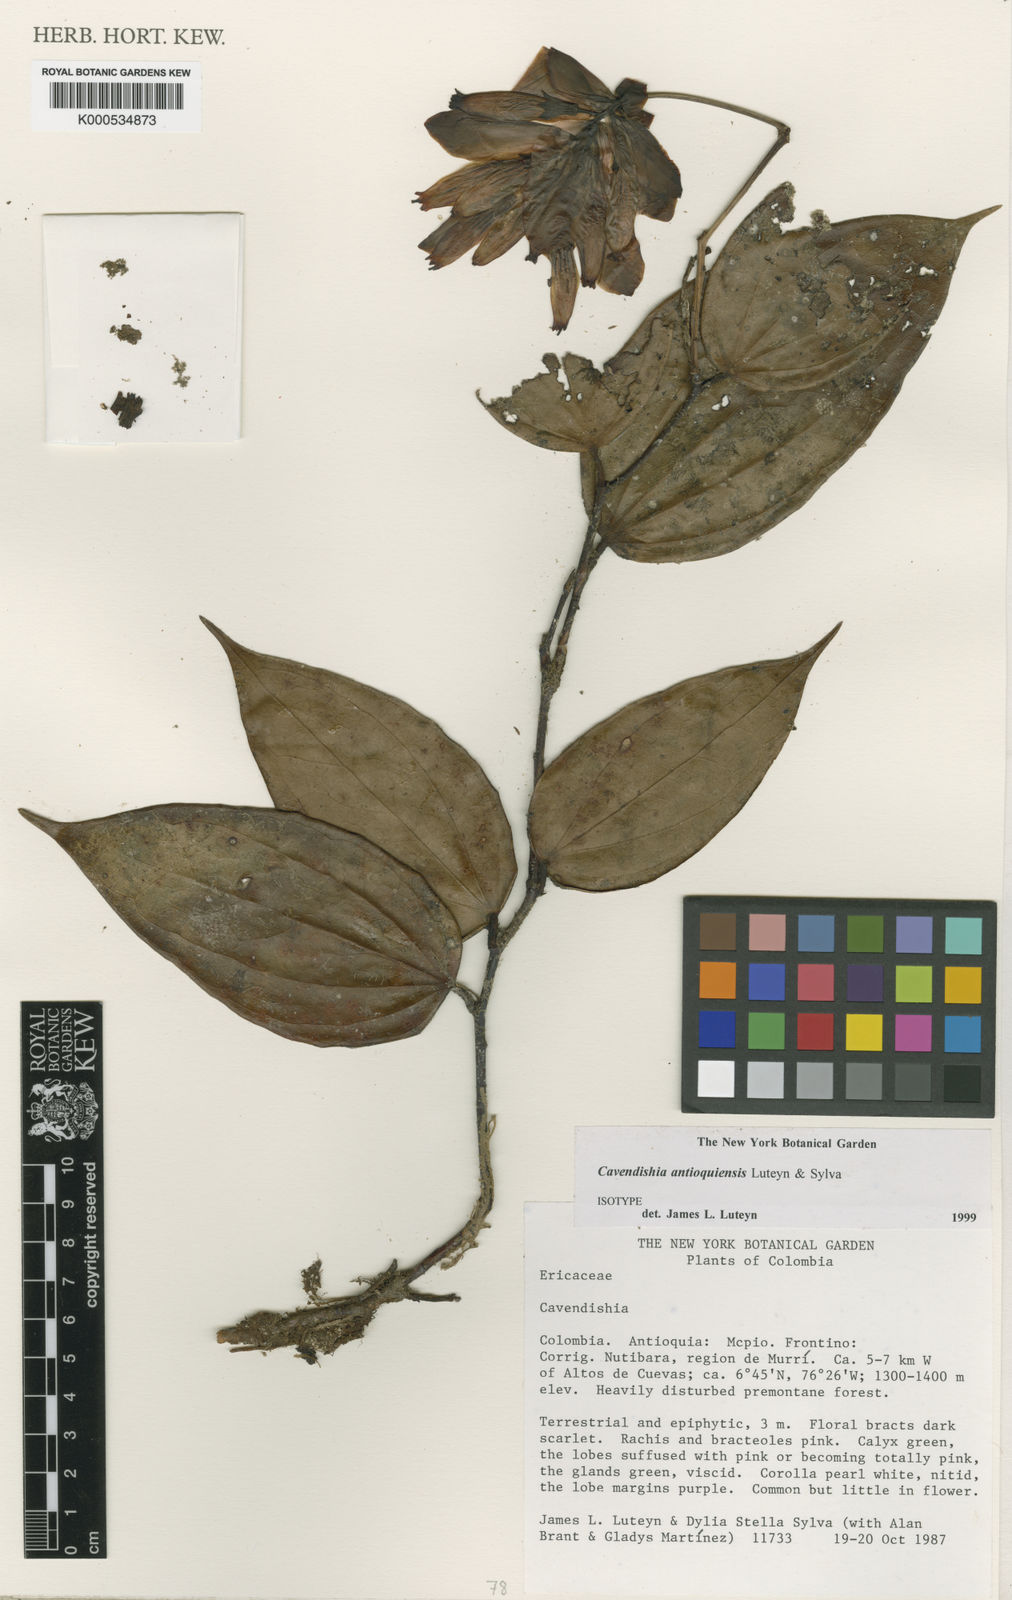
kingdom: Plantae
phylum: Tracheophyta
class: Magnoliopsida
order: Ericales
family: Ericaceae
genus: Cavendishia
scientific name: Cavendishia antioquiensis
